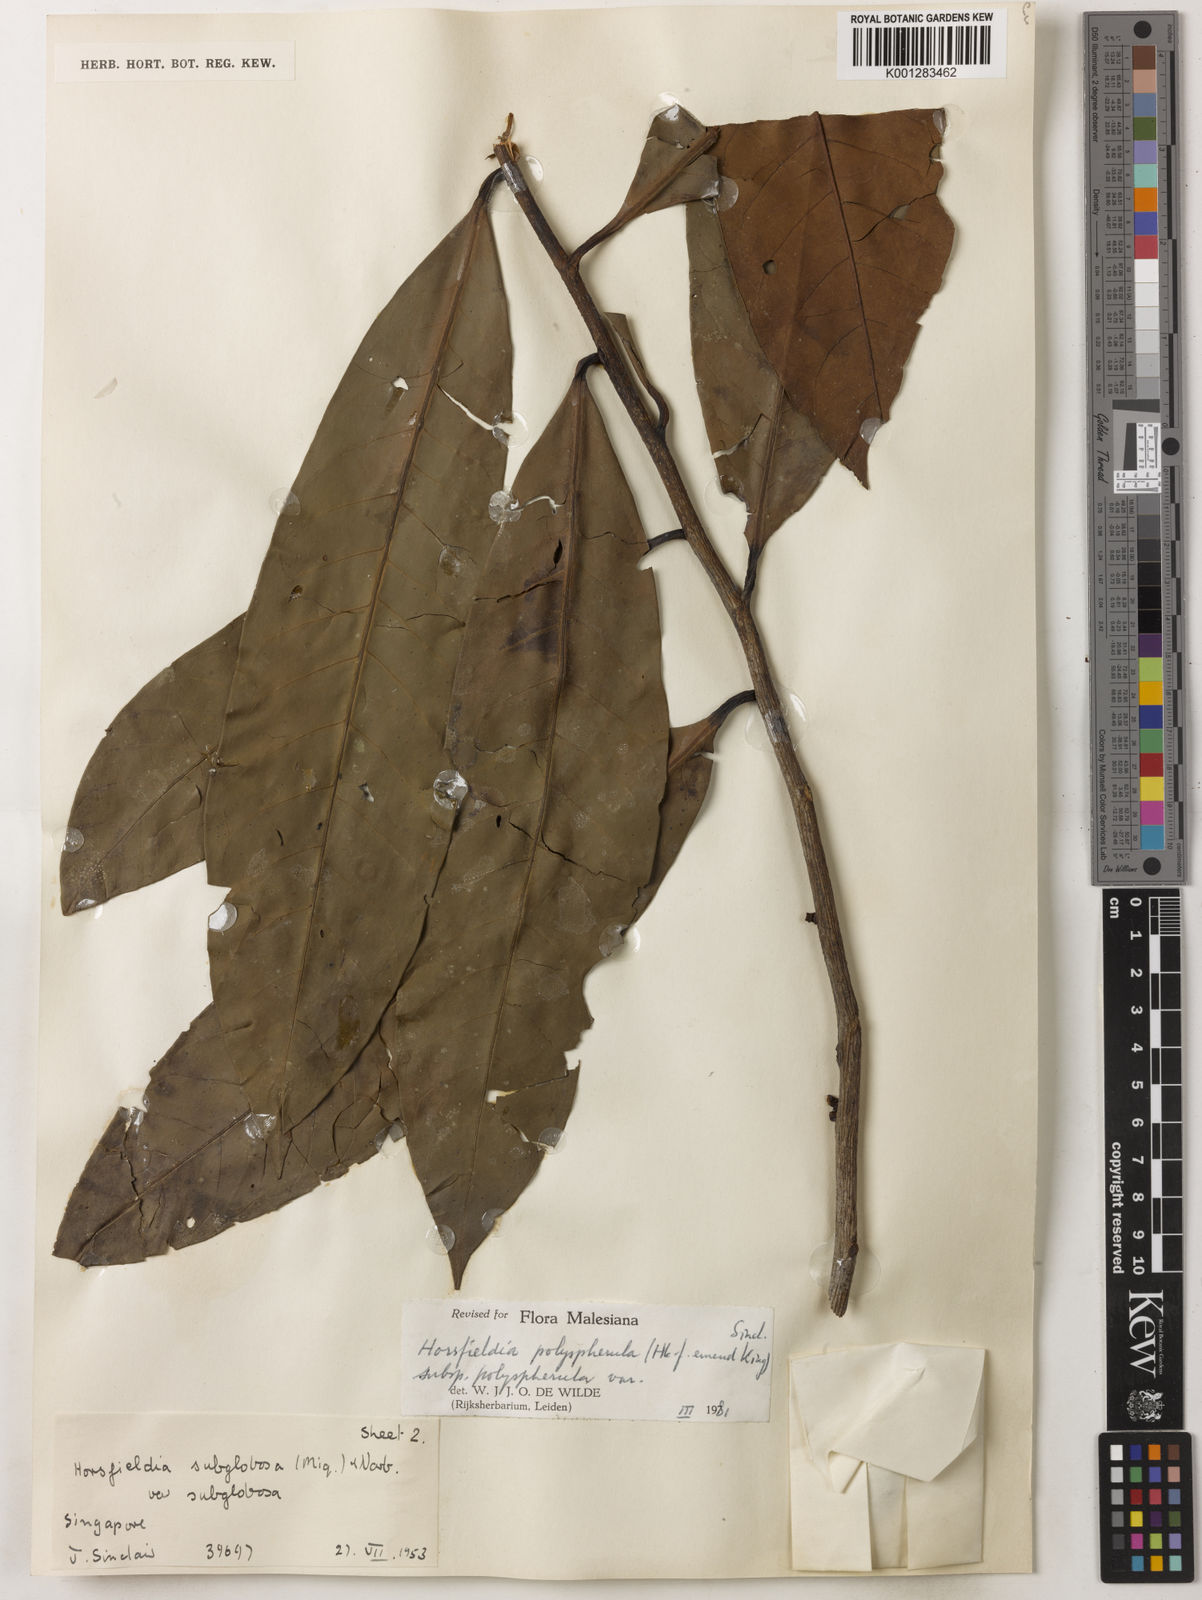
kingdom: Plantae
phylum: Tracheophyta
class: Magnoliopsida
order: Magnoliales
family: Myristicaceae
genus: Horsfieldia
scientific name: Horsfieldia polyspherula
